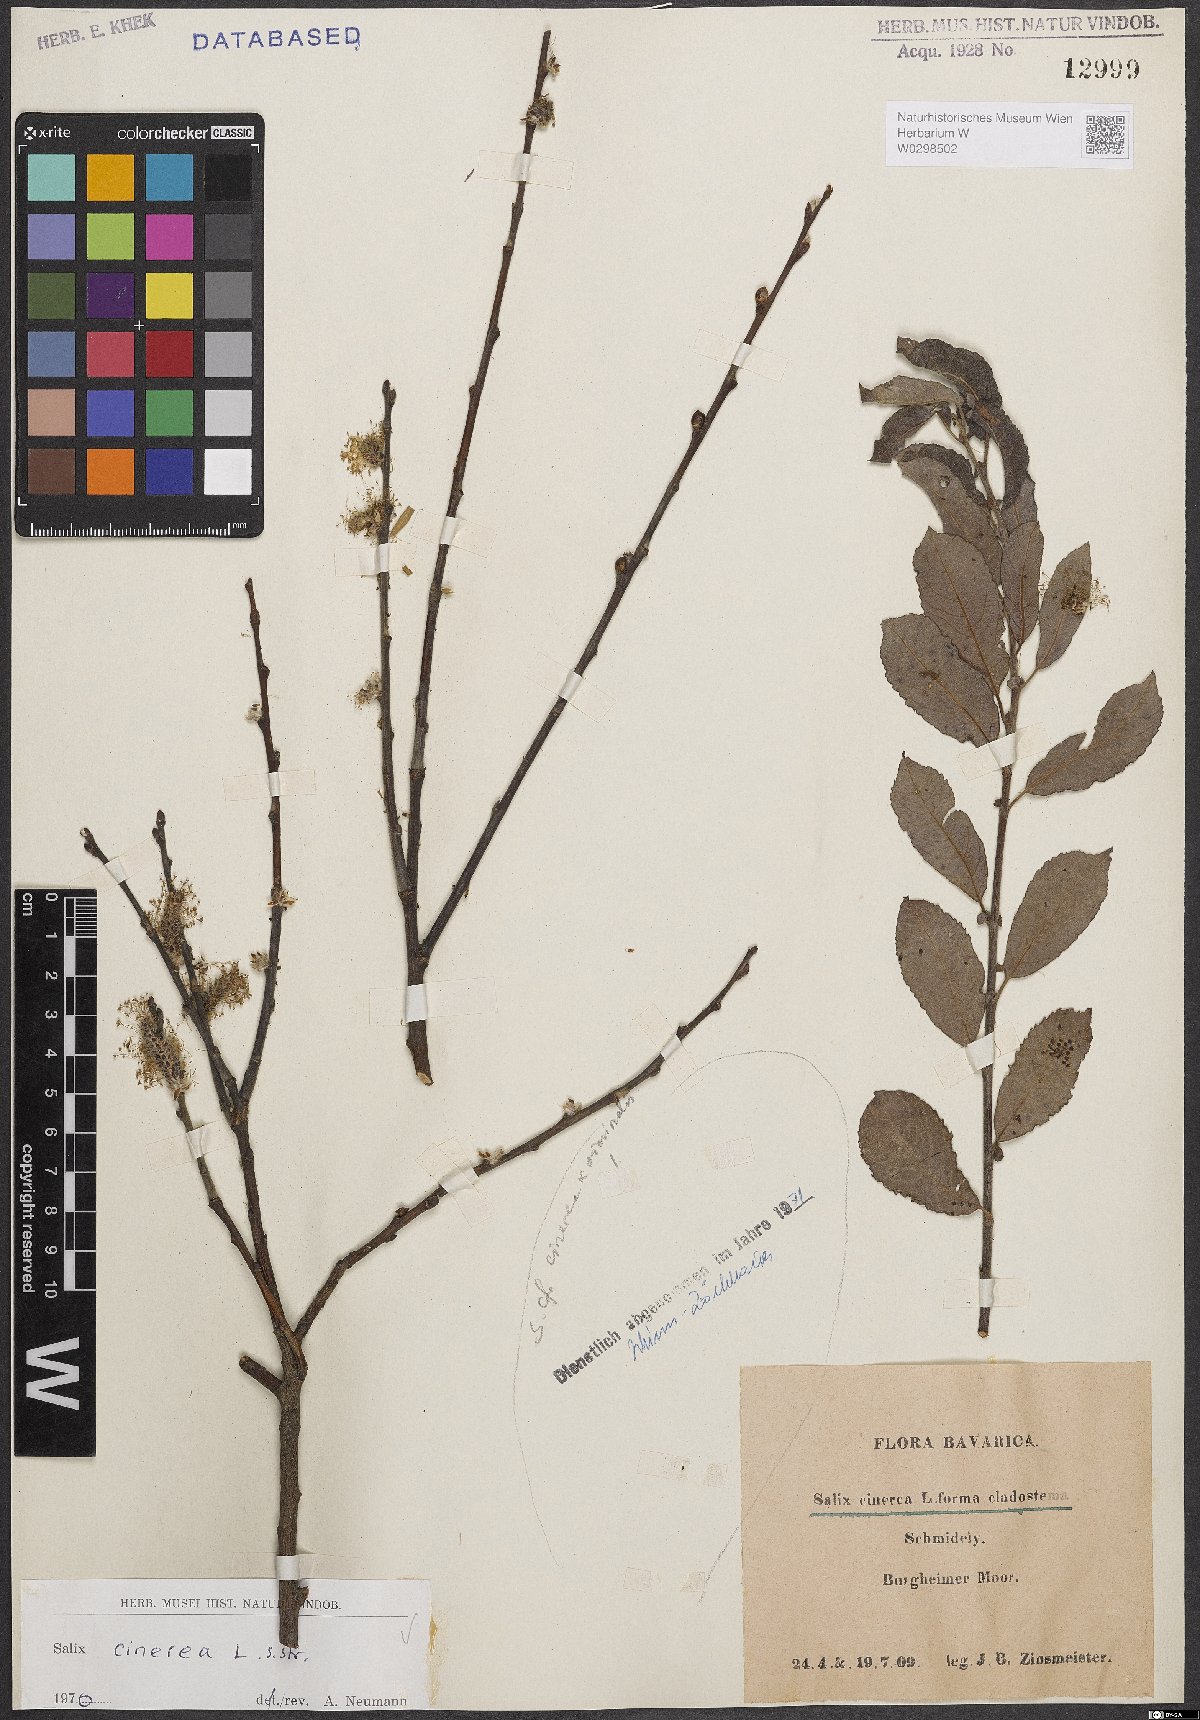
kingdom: Plantae
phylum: Tracheophyta
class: Magnoliopsida
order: Malpighiales
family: Salicaceae
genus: Salix
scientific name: Salix cinerea
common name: Common sallow
